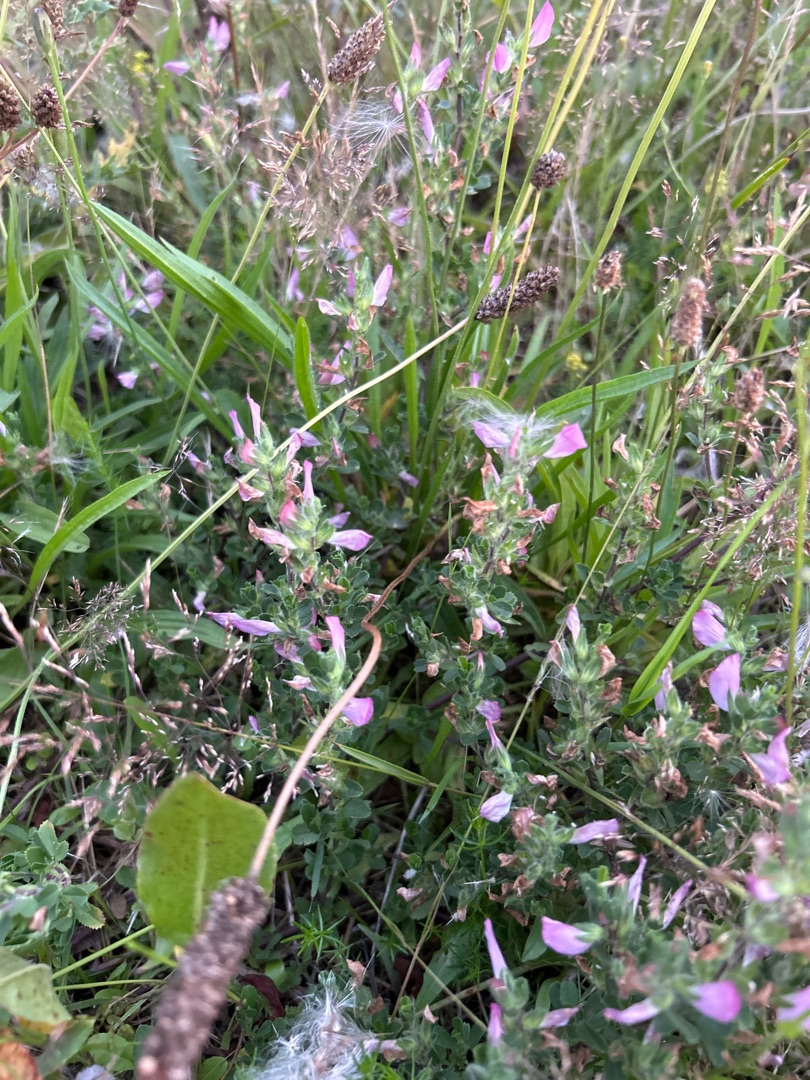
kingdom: Plantae
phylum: Tracheophyta
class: Magnoliopsida
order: Fabales
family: Fabaceae
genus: Ononis
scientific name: Ononis spinosa
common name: Mark-krageklo
